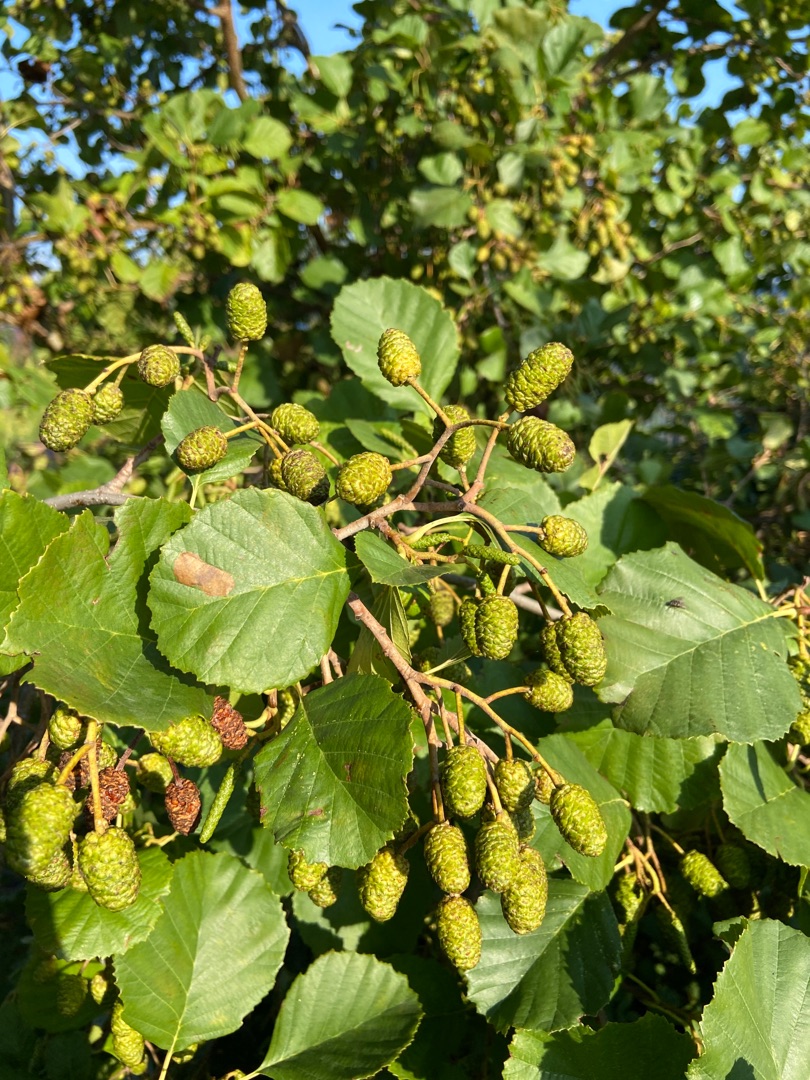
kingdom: Plantae
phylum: Tracheophyta
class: Magnoliopsida
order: Fagales
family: Betulaceae
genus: Alnus
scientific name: Alnus glutinosa
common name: Rød-el
